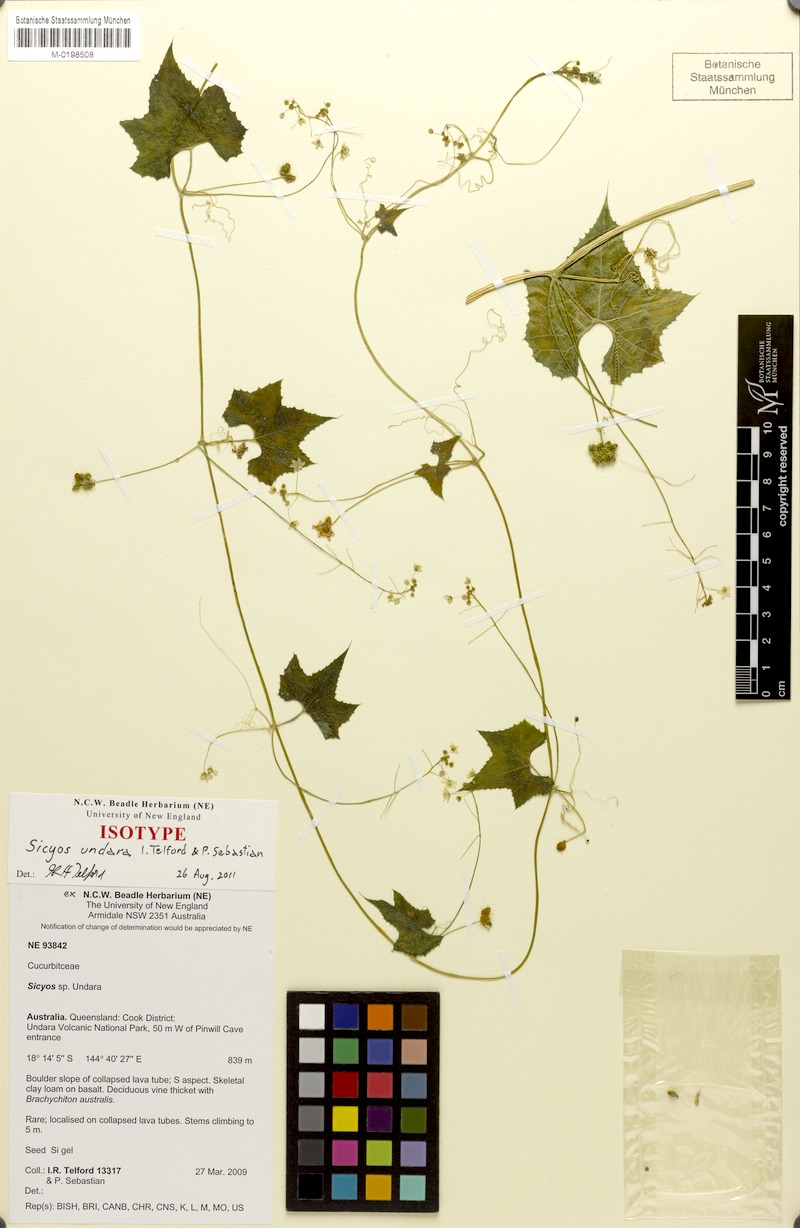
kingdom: Plantae
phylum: Tracheophyta
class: Magnoliopsida
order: Cucurbitales
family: Cucurbitaceae
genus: Sicyos
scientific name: Sicyos undara
